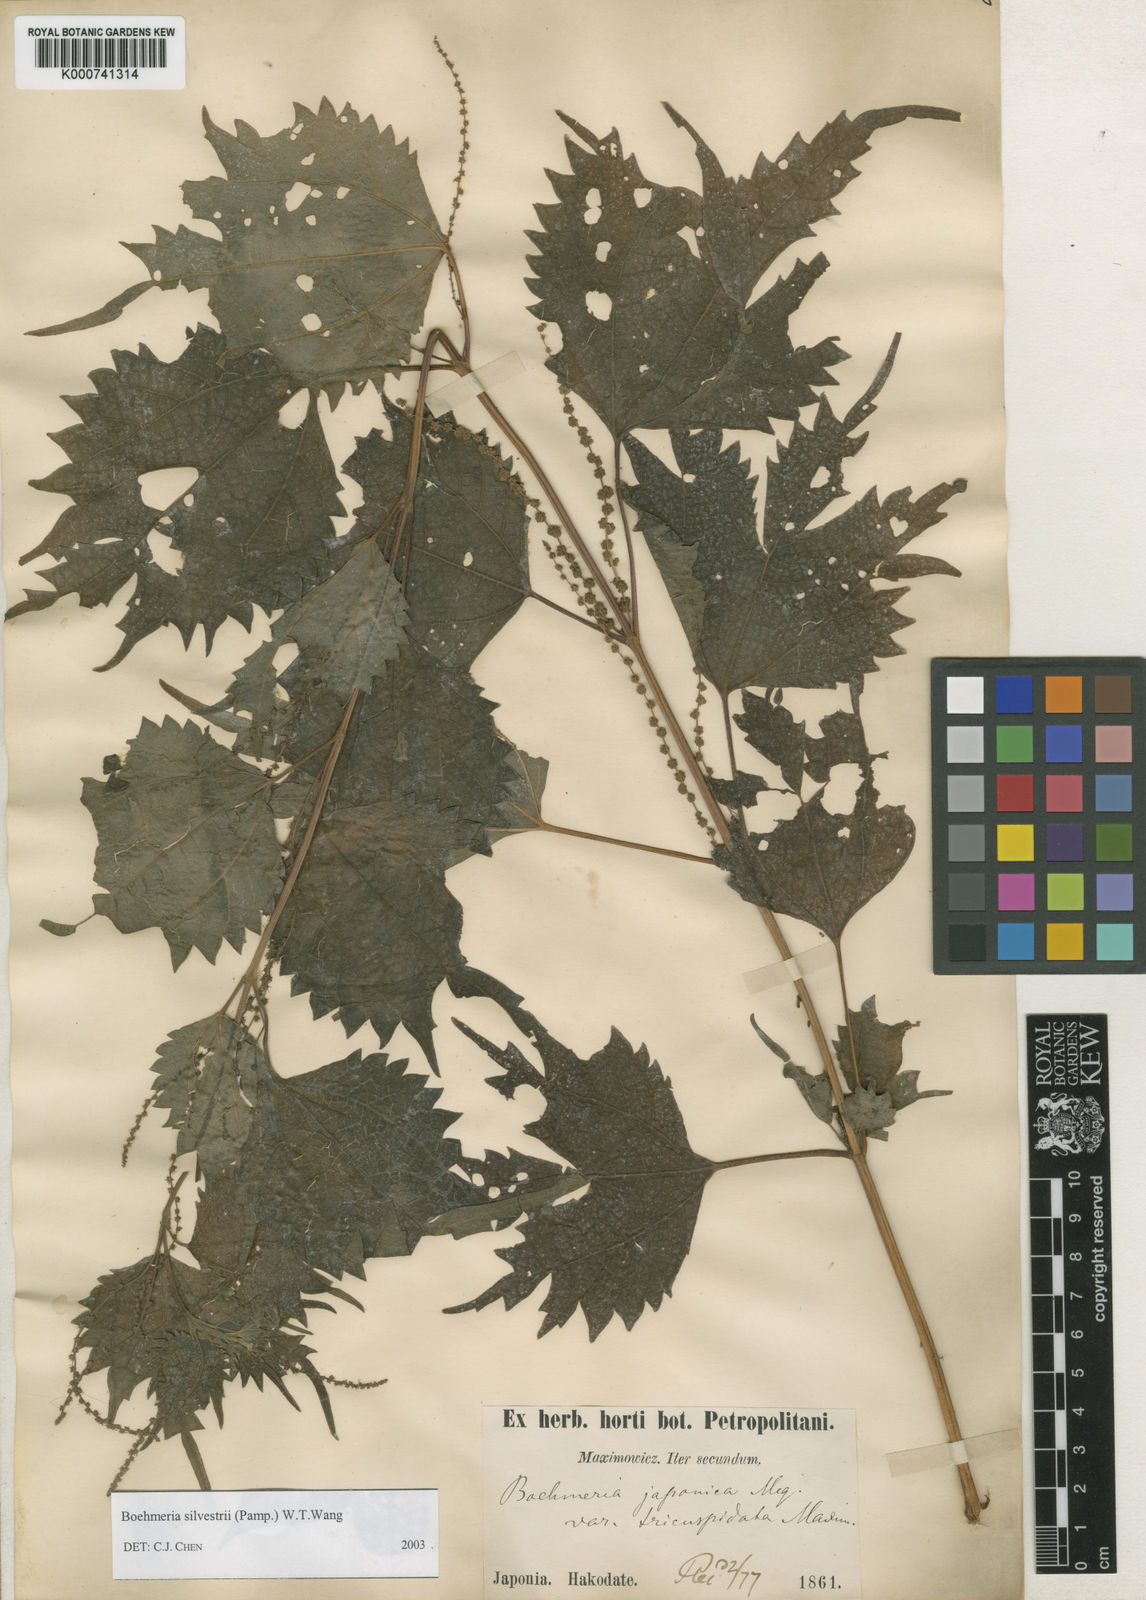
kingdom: Plantae
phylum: Tracheophyta
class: Magnoliopsida
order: Rosales
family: Urticaceae
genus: Boehmeria
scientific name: Boehmeria japonica
